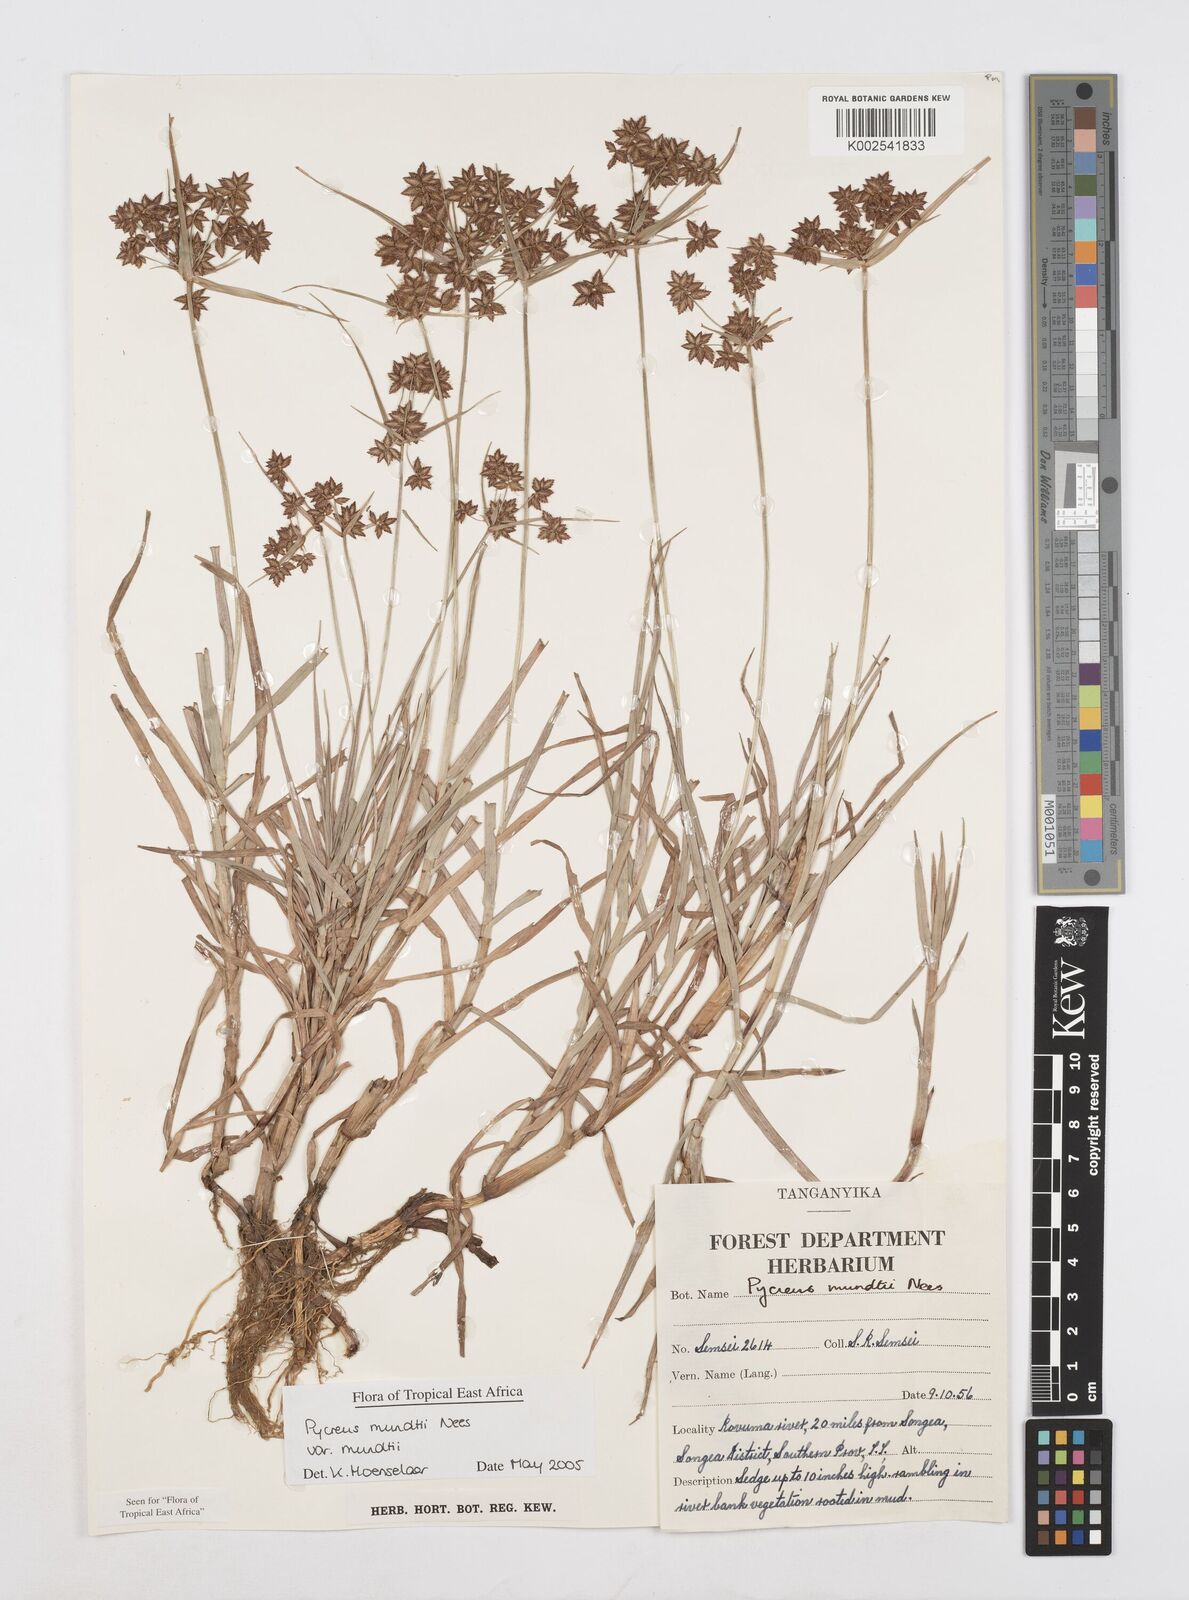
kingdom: Plantae
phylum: Tracheophyta
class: Liliopsida
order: Poales
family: Cyperaceae
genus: Cyperus
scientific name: Cyperus mundii
